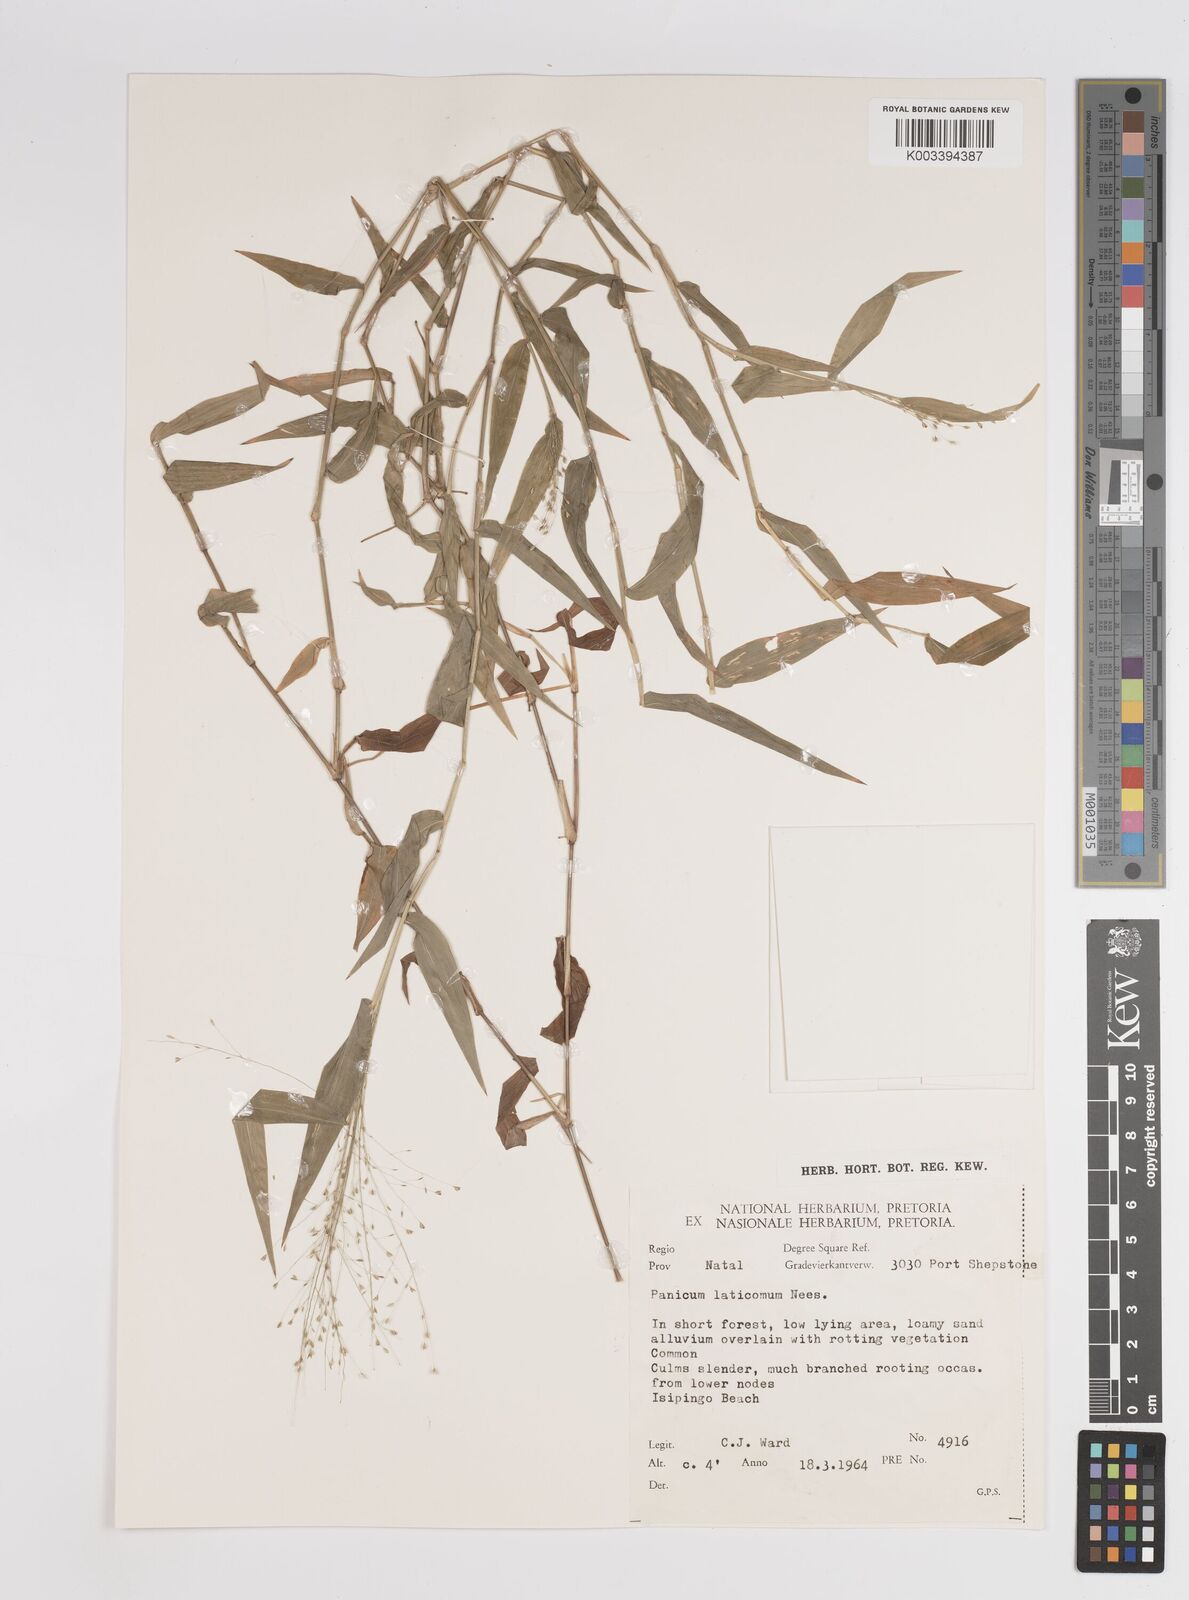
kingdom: Plantae
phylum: Tracheophyta
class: Liliopsida
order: Poales
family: Poaceae
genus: Panicum
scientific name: Panicum laticomum
